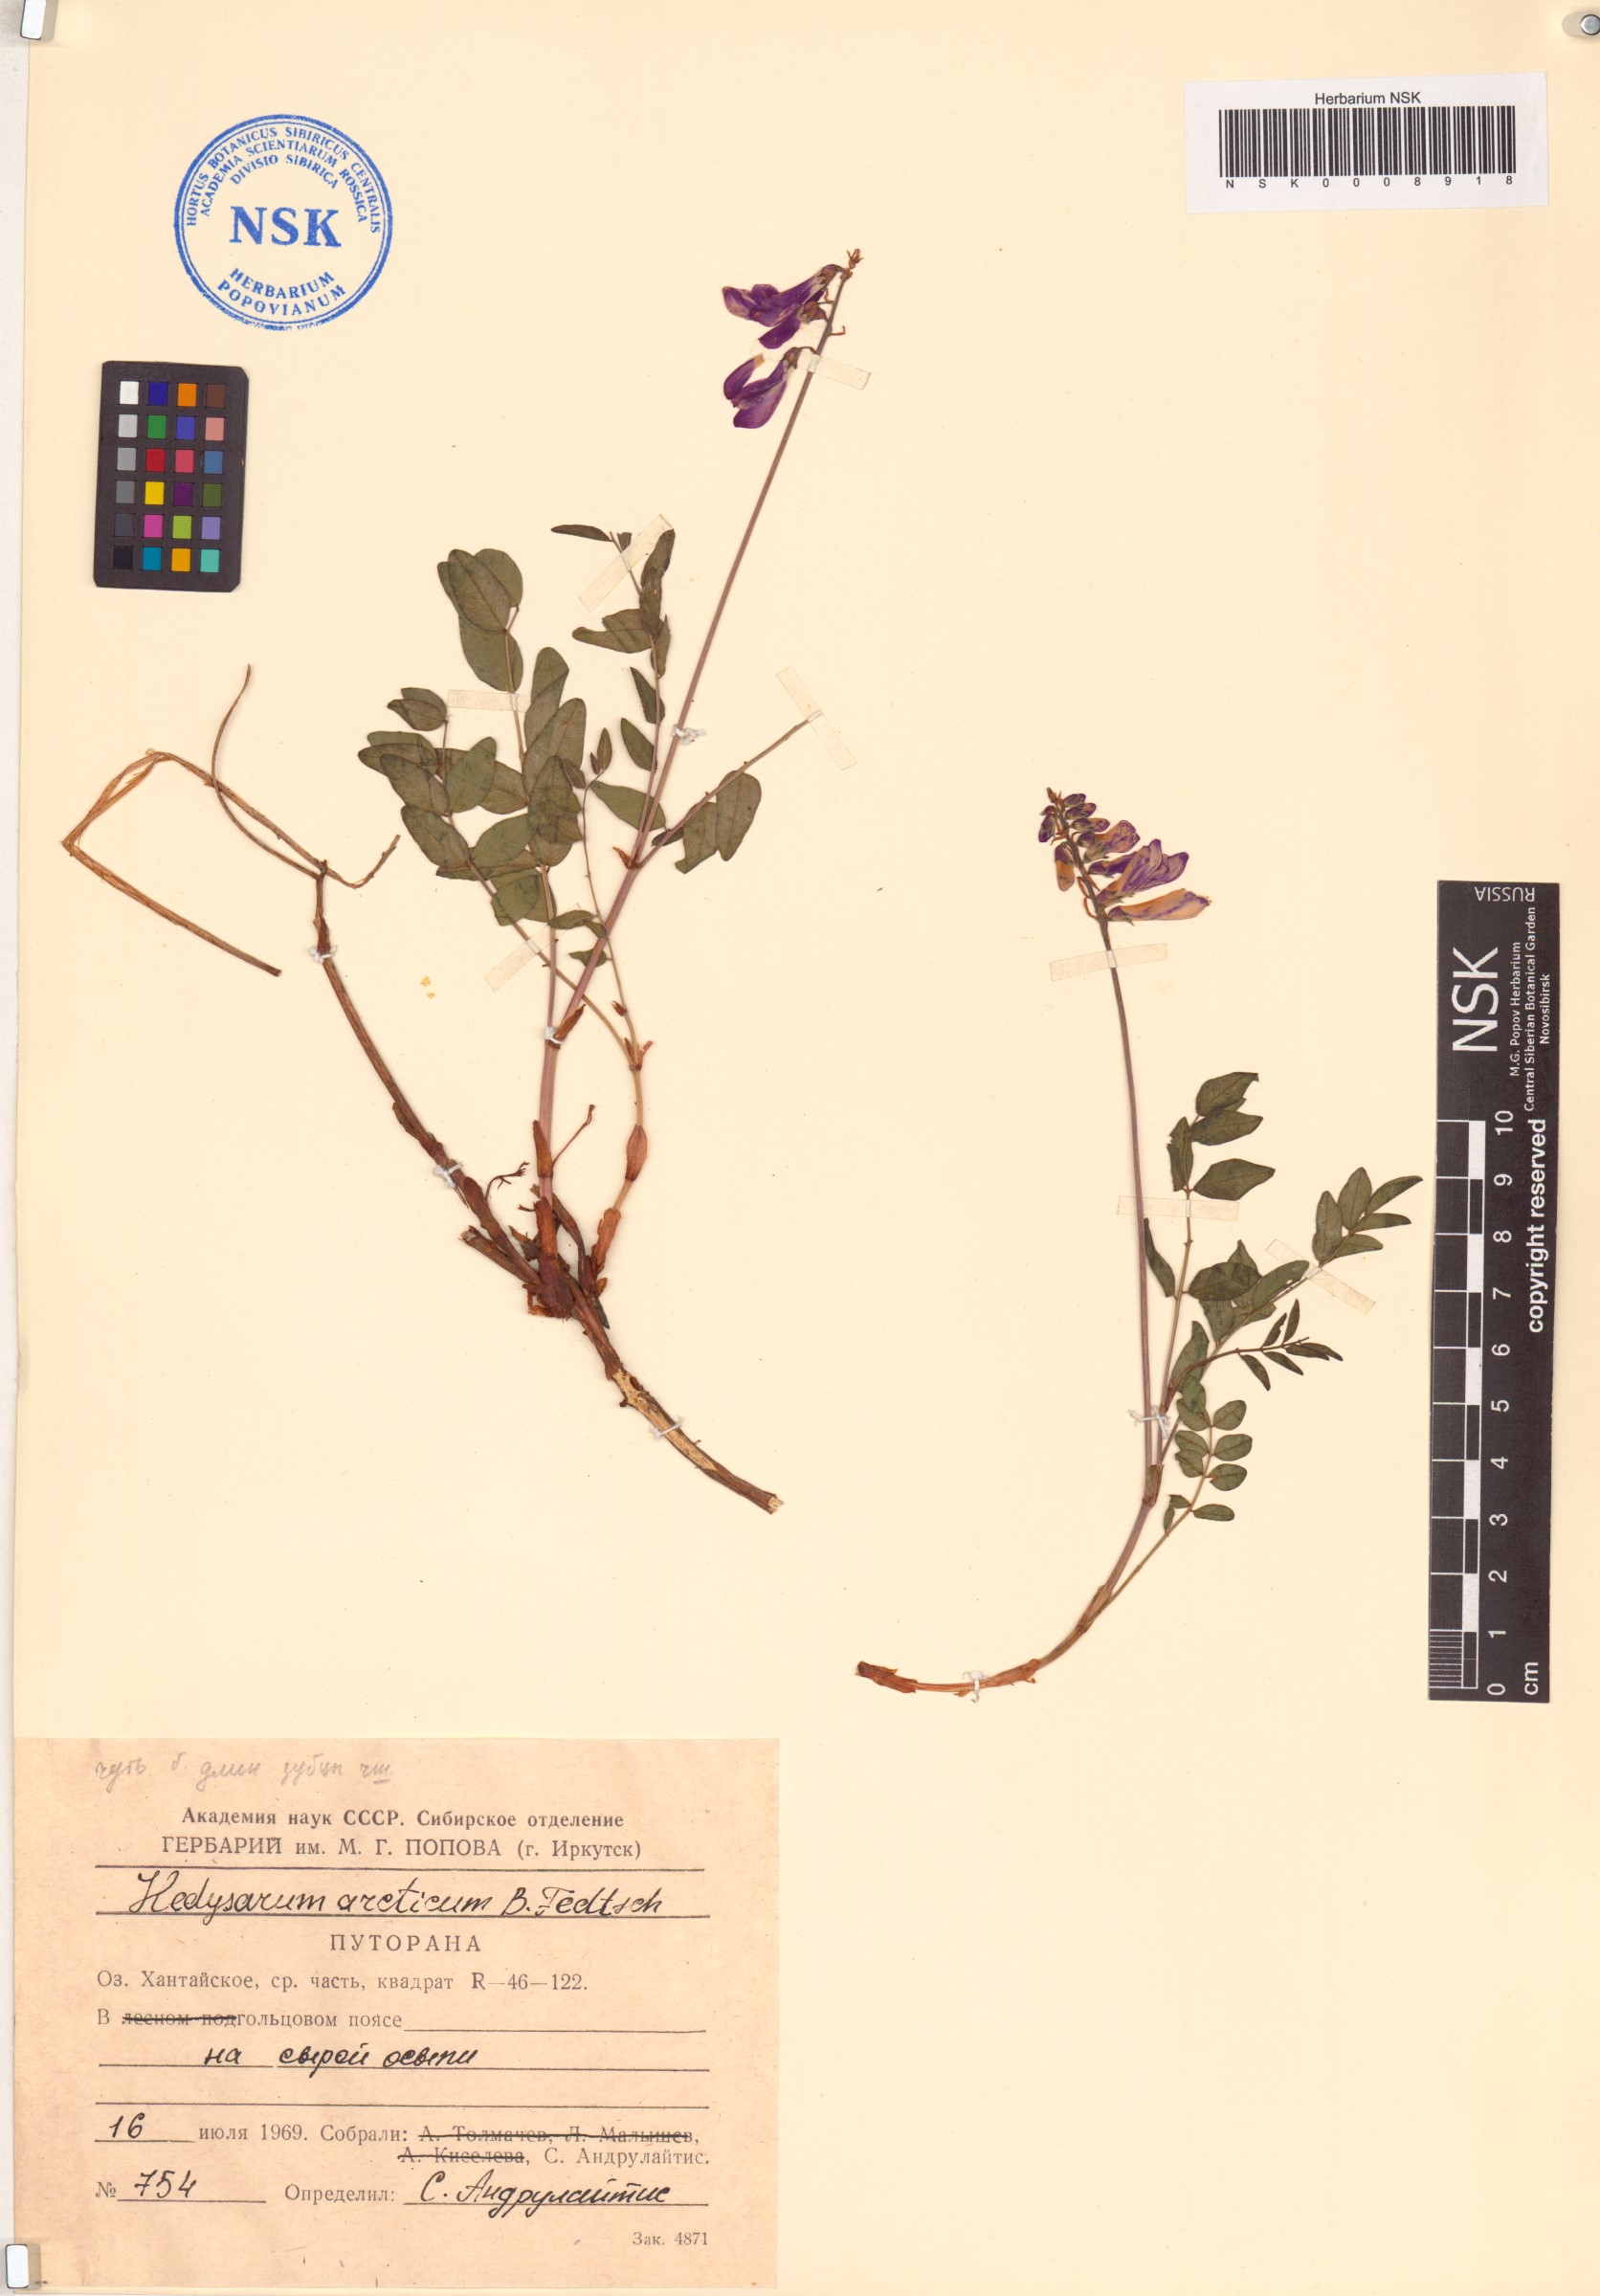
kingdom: Plantae
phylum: Tracheophyta
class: Magnoliopsida
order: Fabales
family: Fabaceae
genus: Hedysarum
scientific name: Hedysarum hedysaroides
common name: Alpine french-honeysuckle
